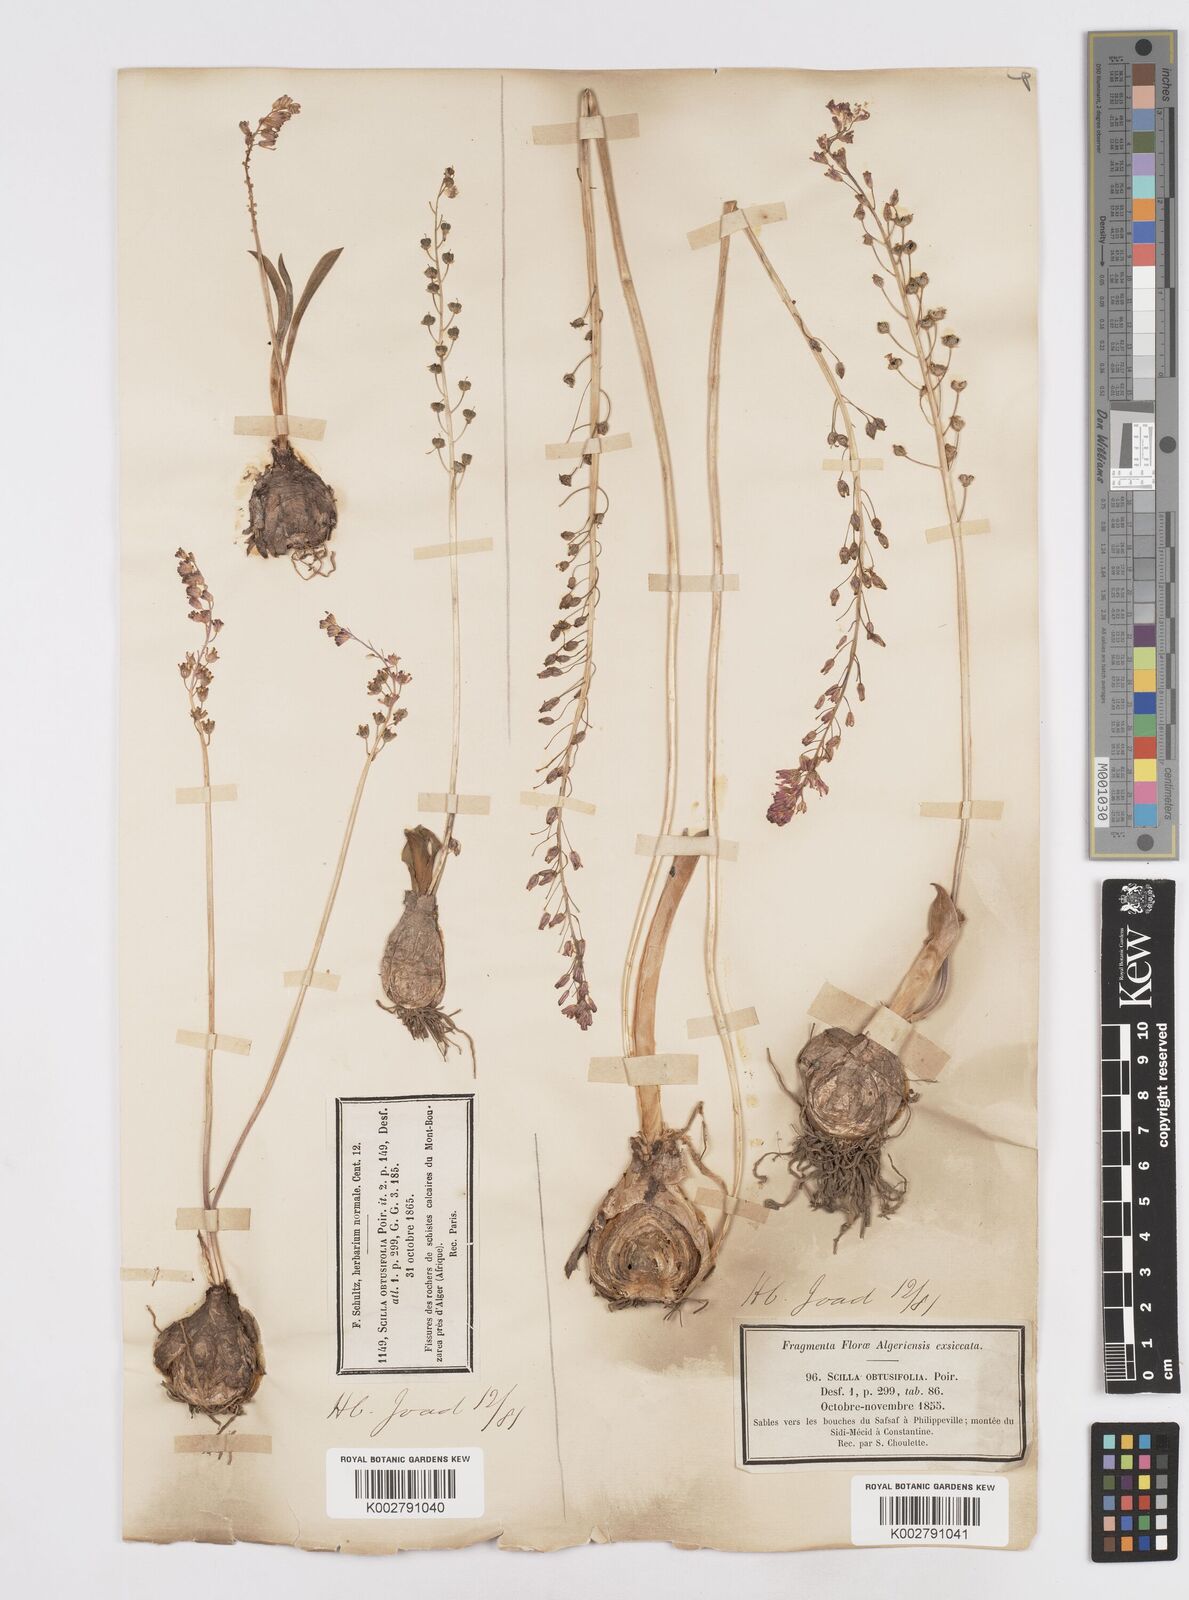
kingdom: Plantae
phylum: Tracheophyta
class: Liliopsida
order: Asparagales
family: Asparagaceae
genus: Prospero
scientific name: Prospero obtusifolium
